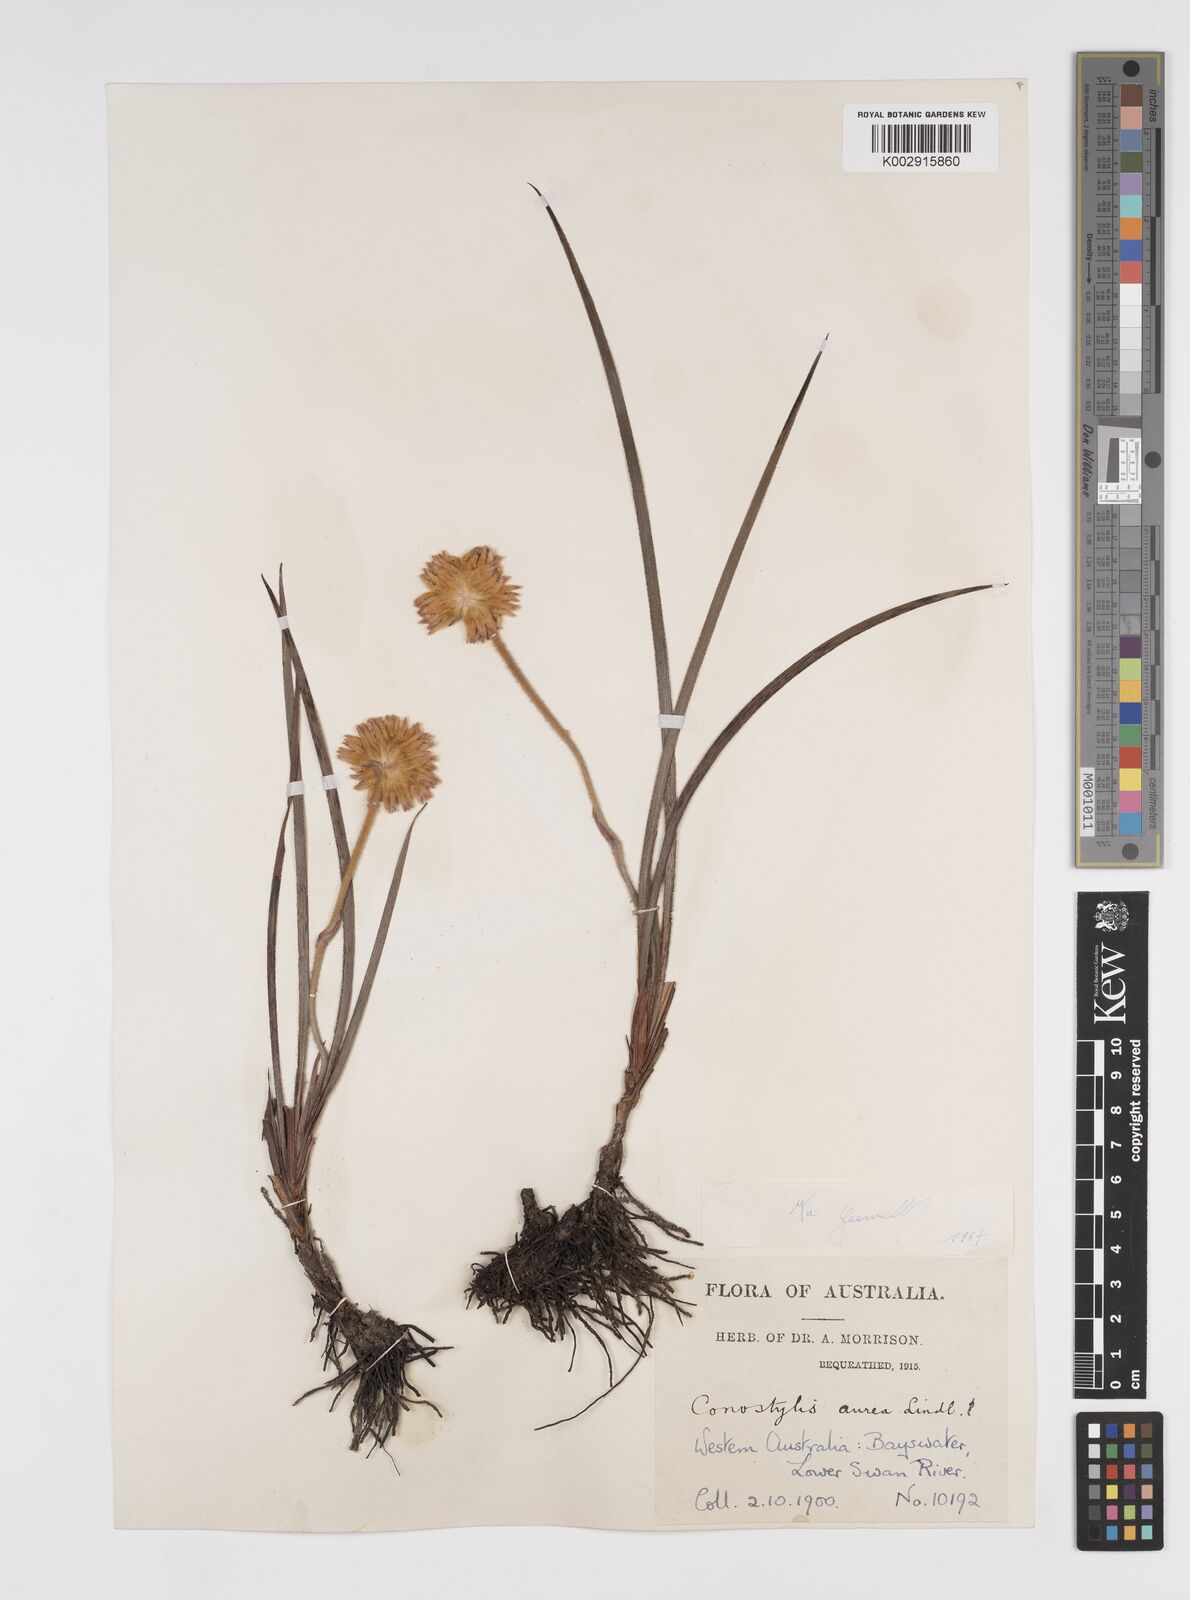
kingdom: Plantae
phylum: Tracheophyta
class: Liliopsida
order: Commelinales
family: Haemodoraceae
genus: Conostylis
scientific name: Conostylis aurea
